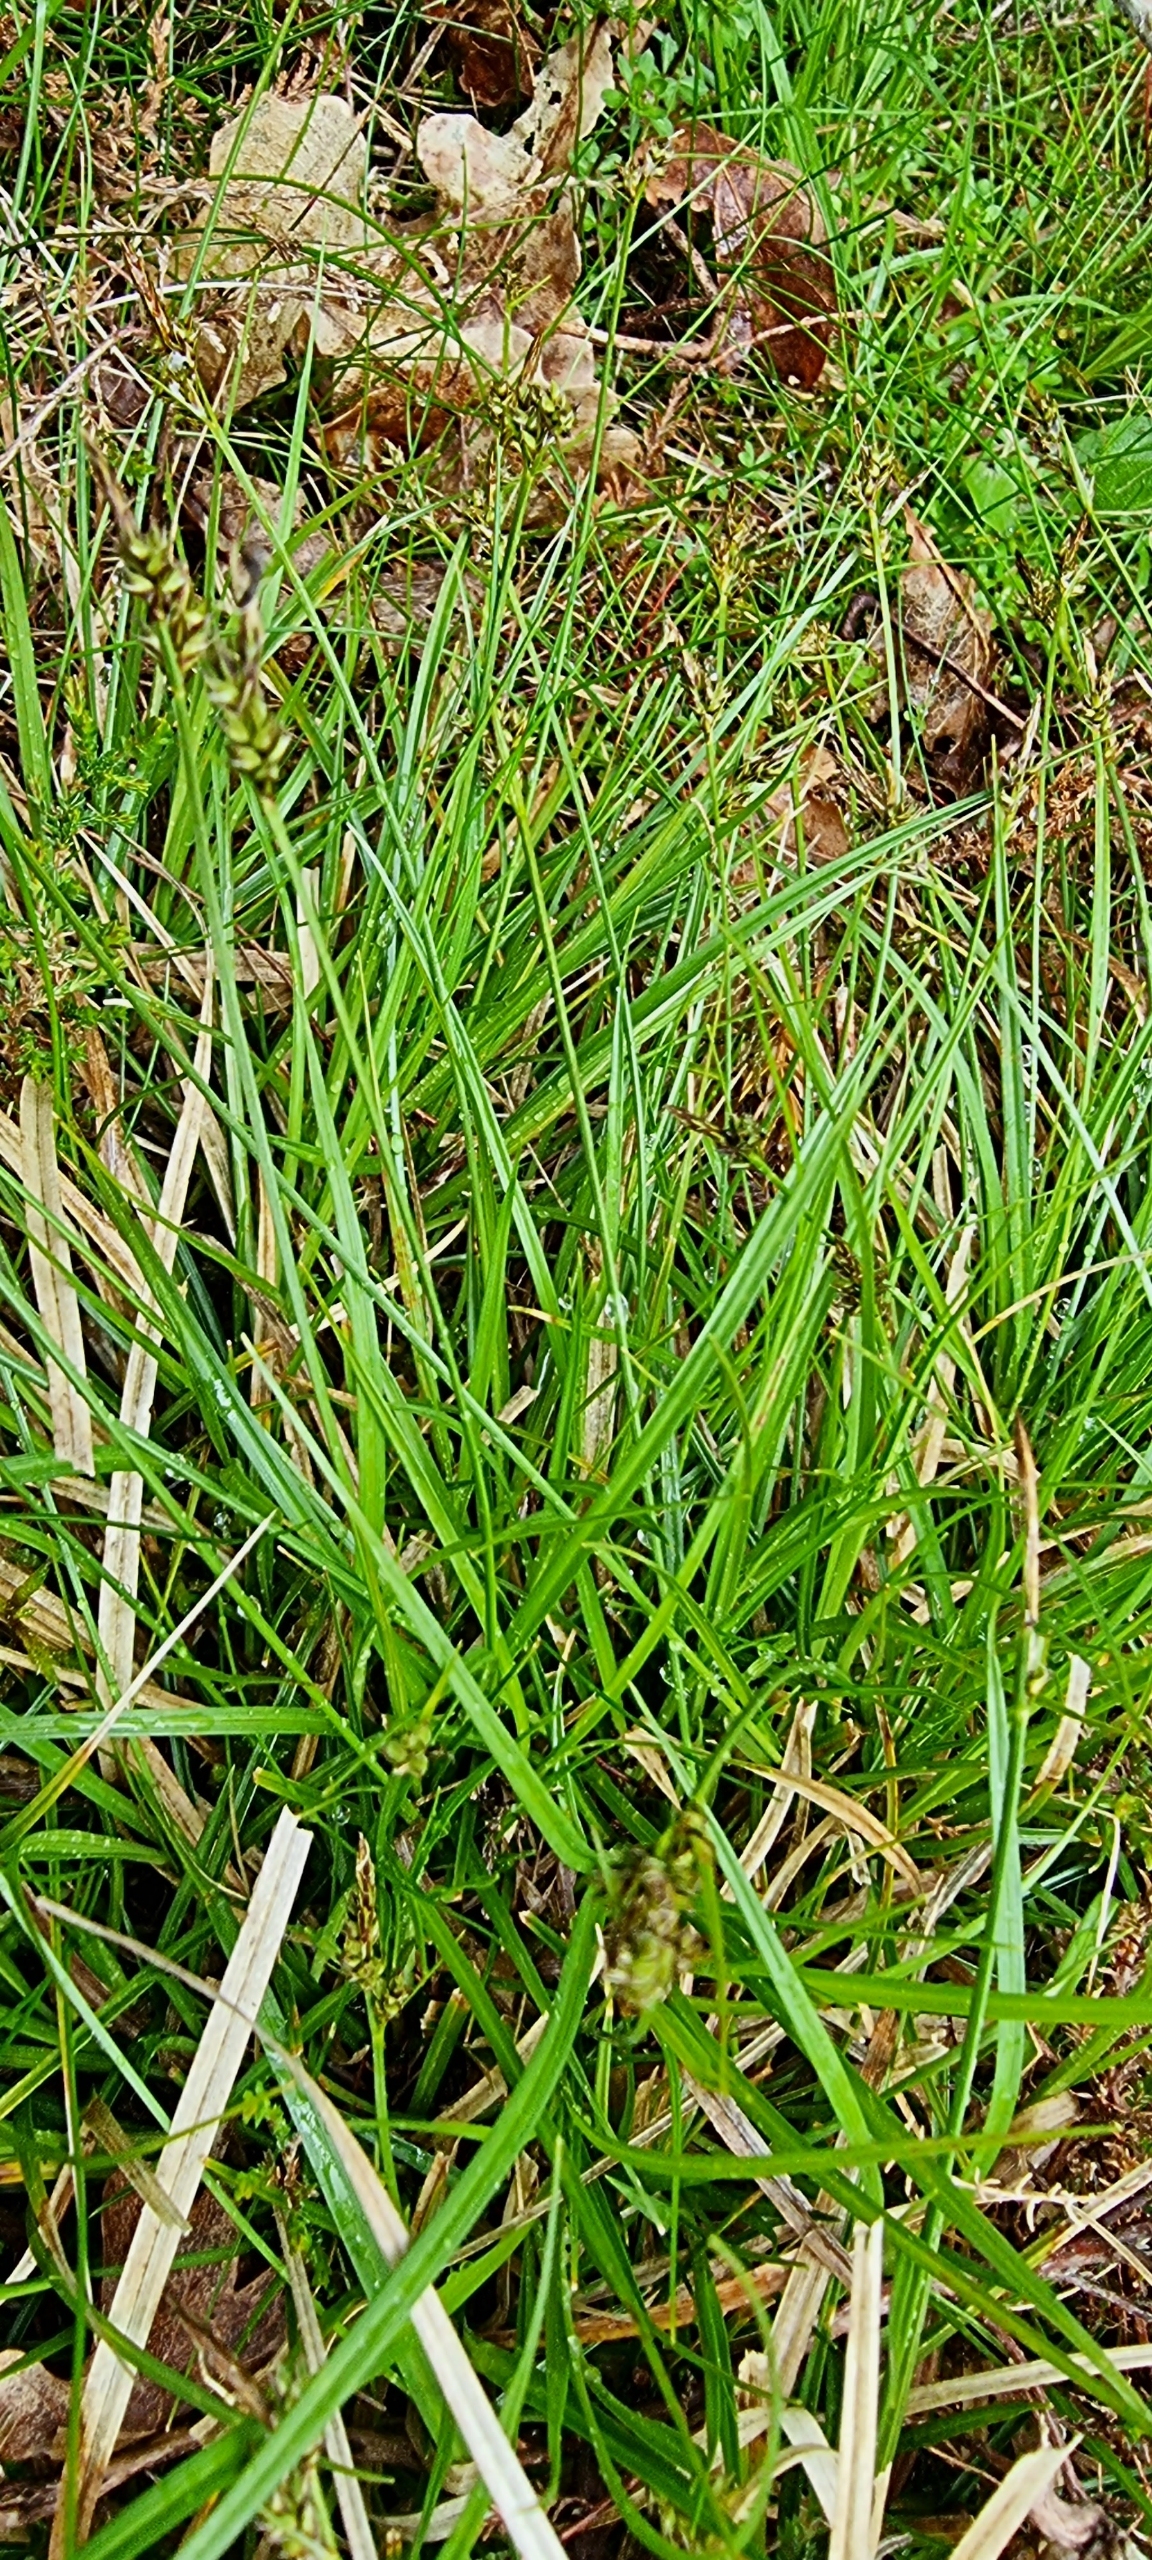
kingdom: Plantae
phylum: Tracheophyta
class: Liliopsida
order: Poales
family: Cyperaceae
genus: Carex
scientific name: Carex pilulifera
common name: Pille-star
